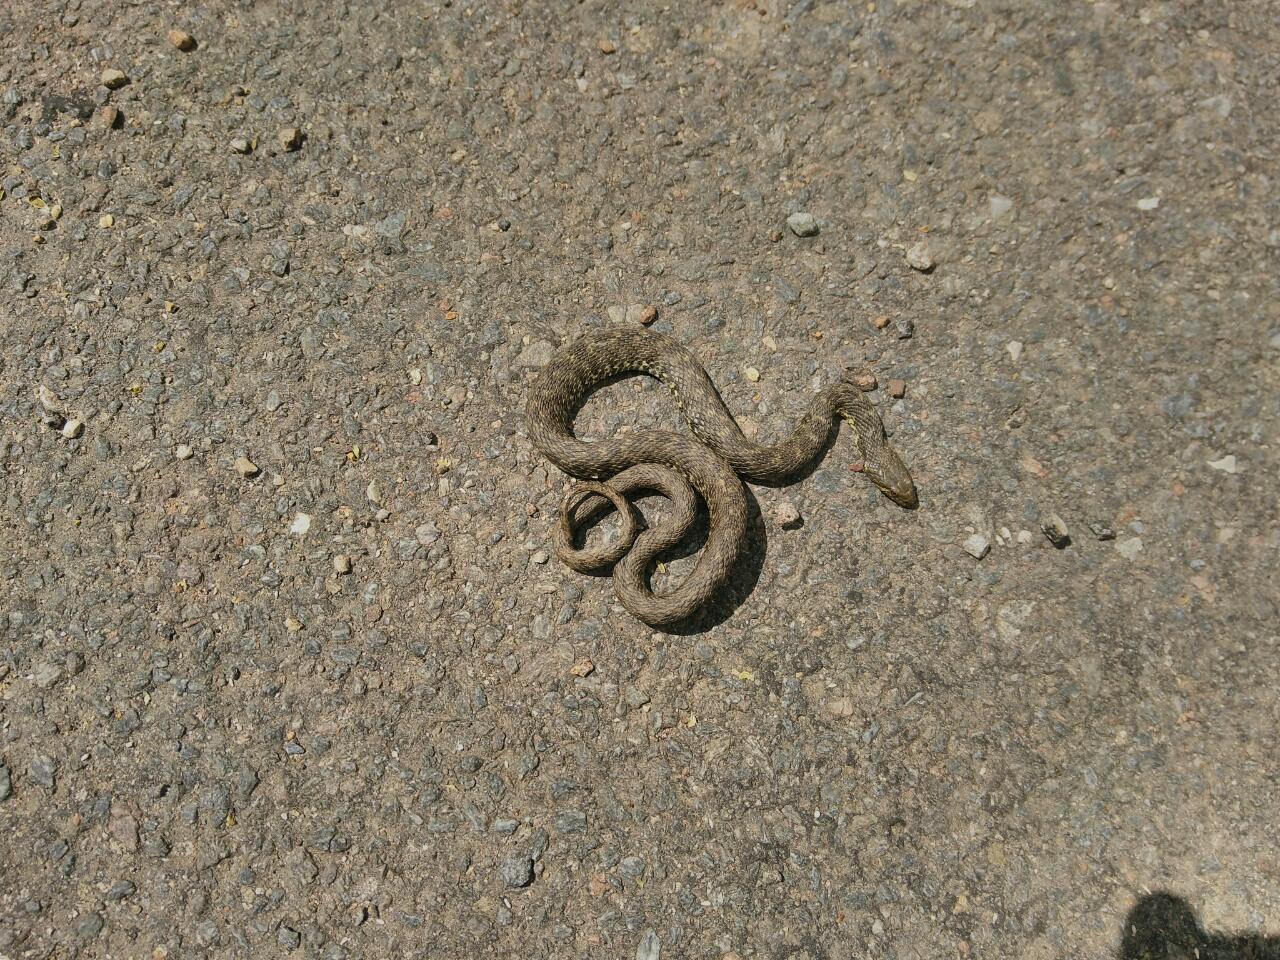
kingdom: Animalia
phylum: Chordata
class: Squamata
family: Colubridae
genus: Natrix
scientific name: Natrix maura
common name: Viperine water snake
